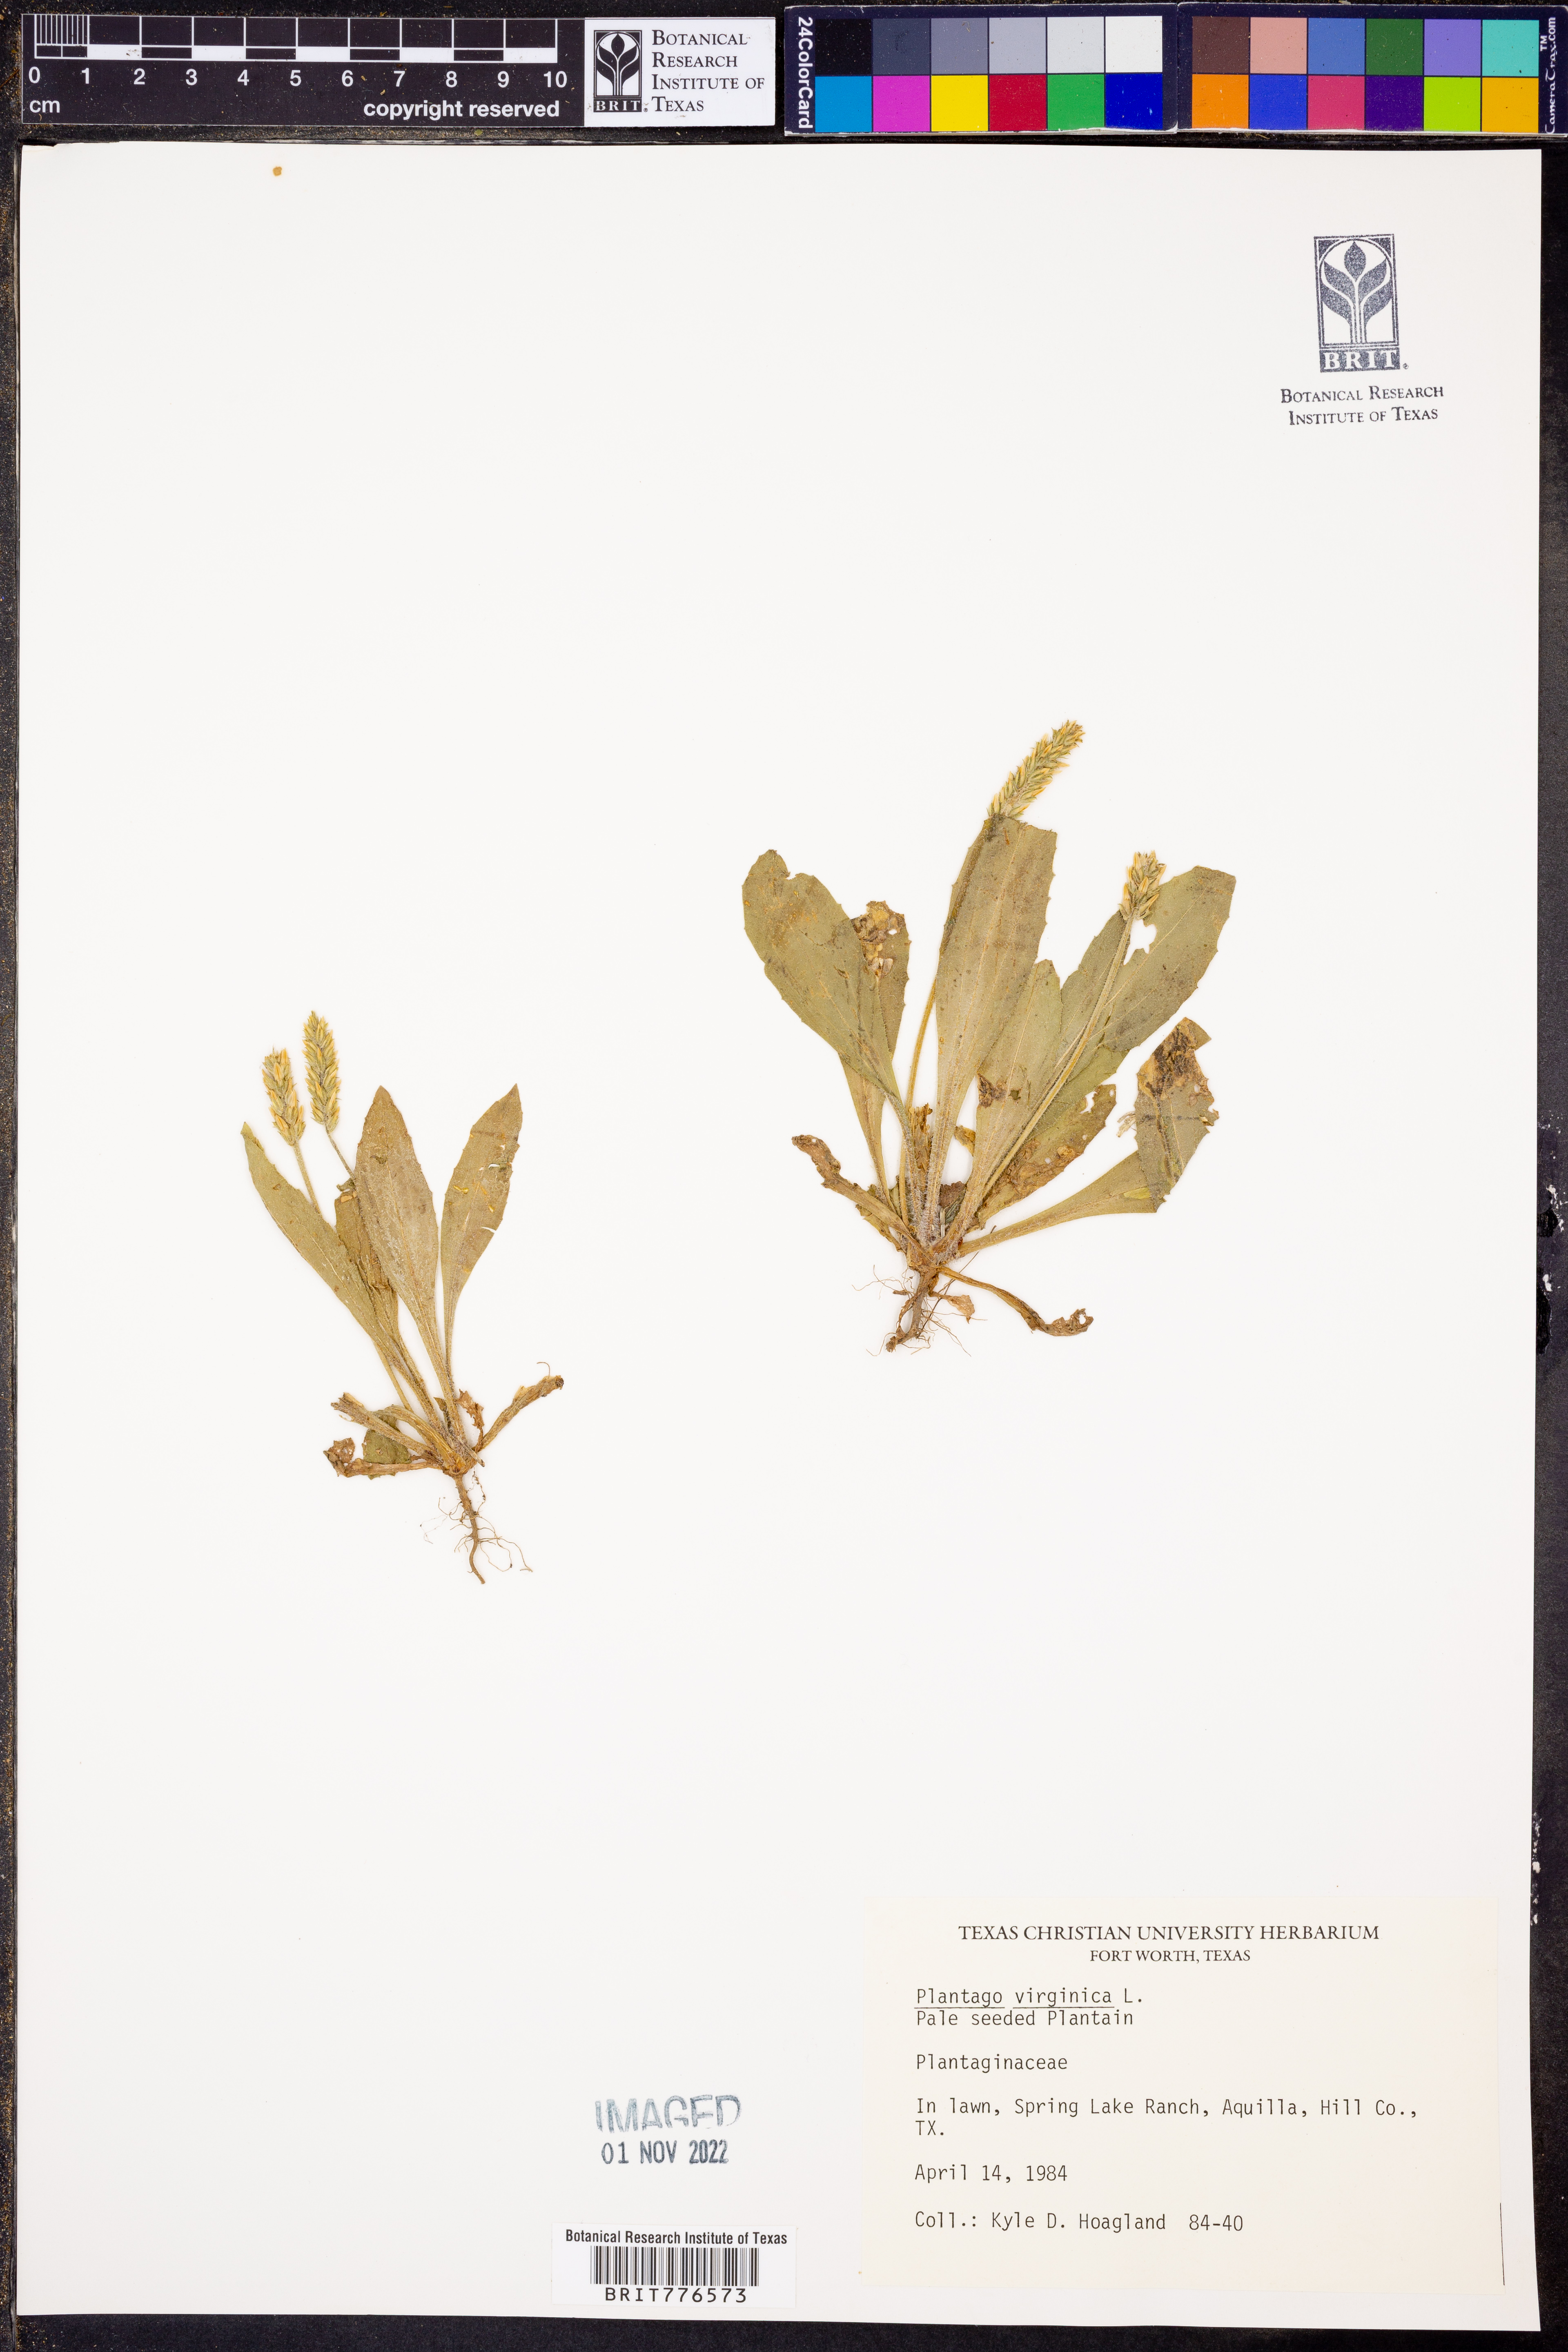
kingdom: Plantae
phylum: Tracheophyta
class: Magnoliopsida
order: Lamiales
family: Plantaginaceae
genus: Plantago
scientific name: Plantago virginica
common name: Hoary plantain
